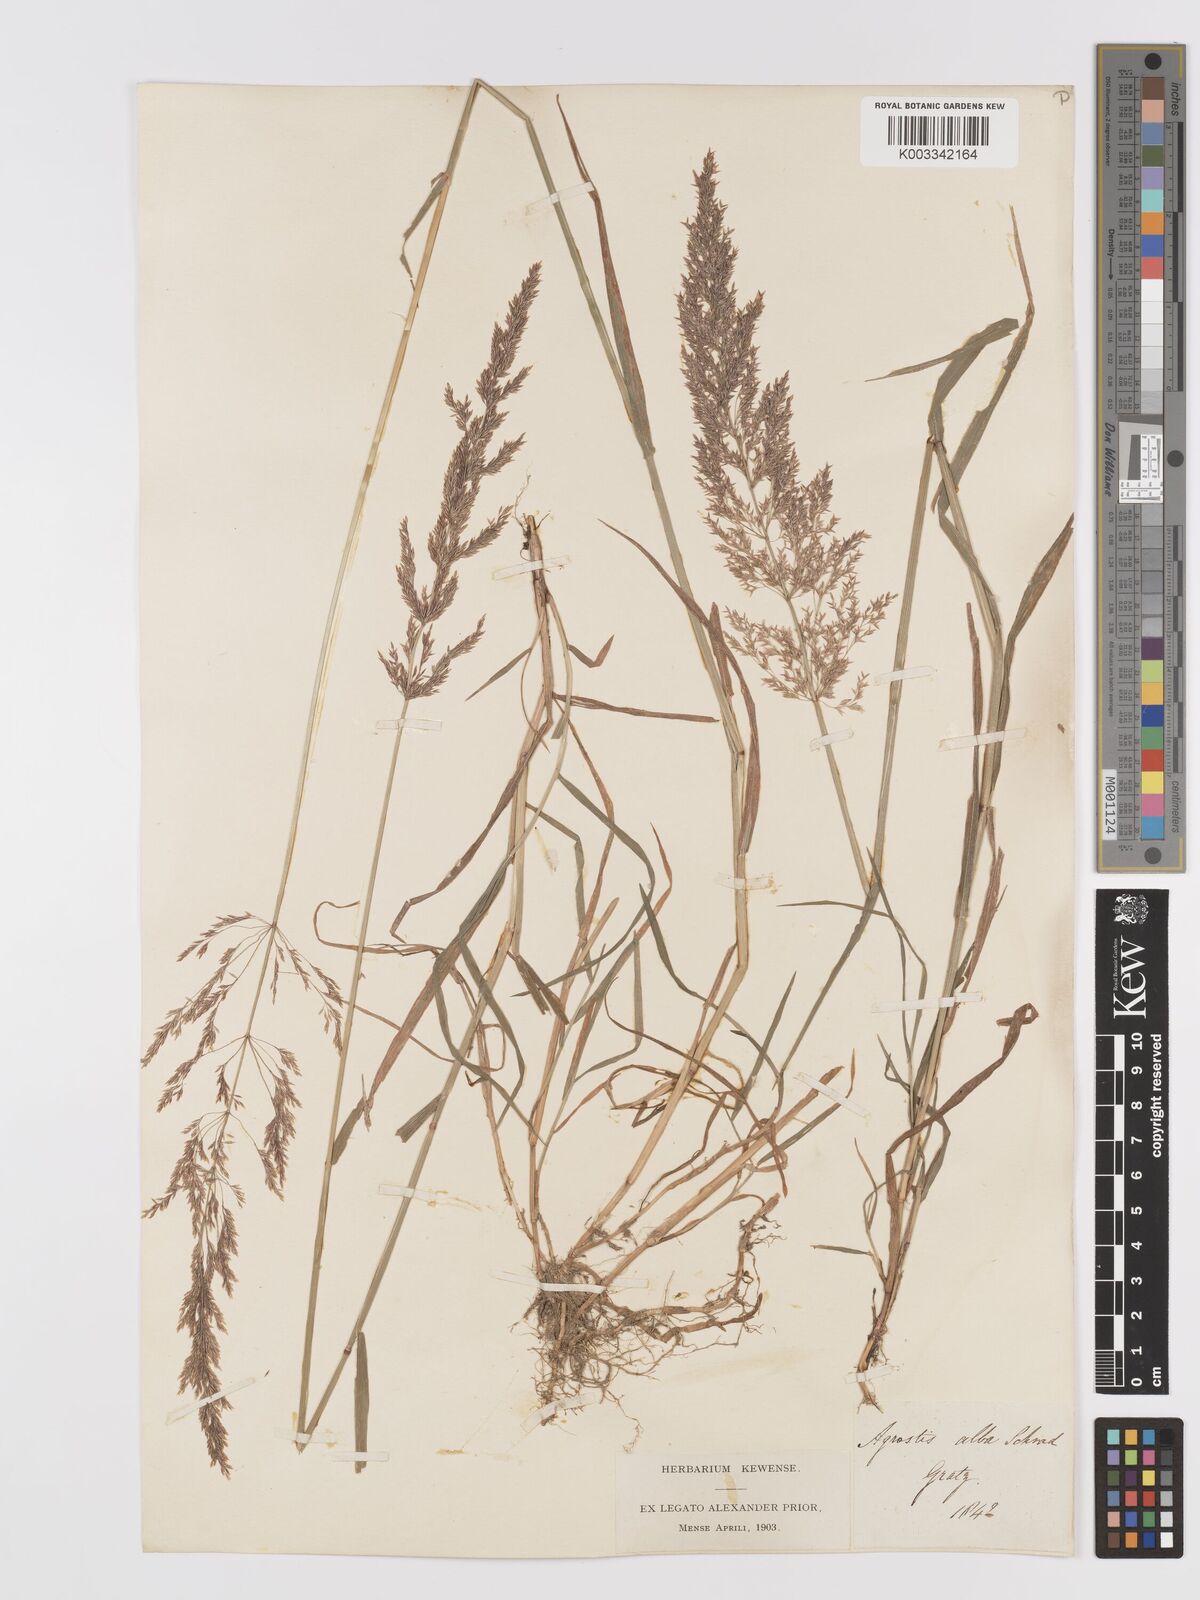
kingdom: Plantae
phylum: Tracheophyta
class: Liliopsida
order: Poales
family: Poaceae
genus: Agrostis
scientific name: Agrostis stolonifera
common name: Creeping bentgrass
